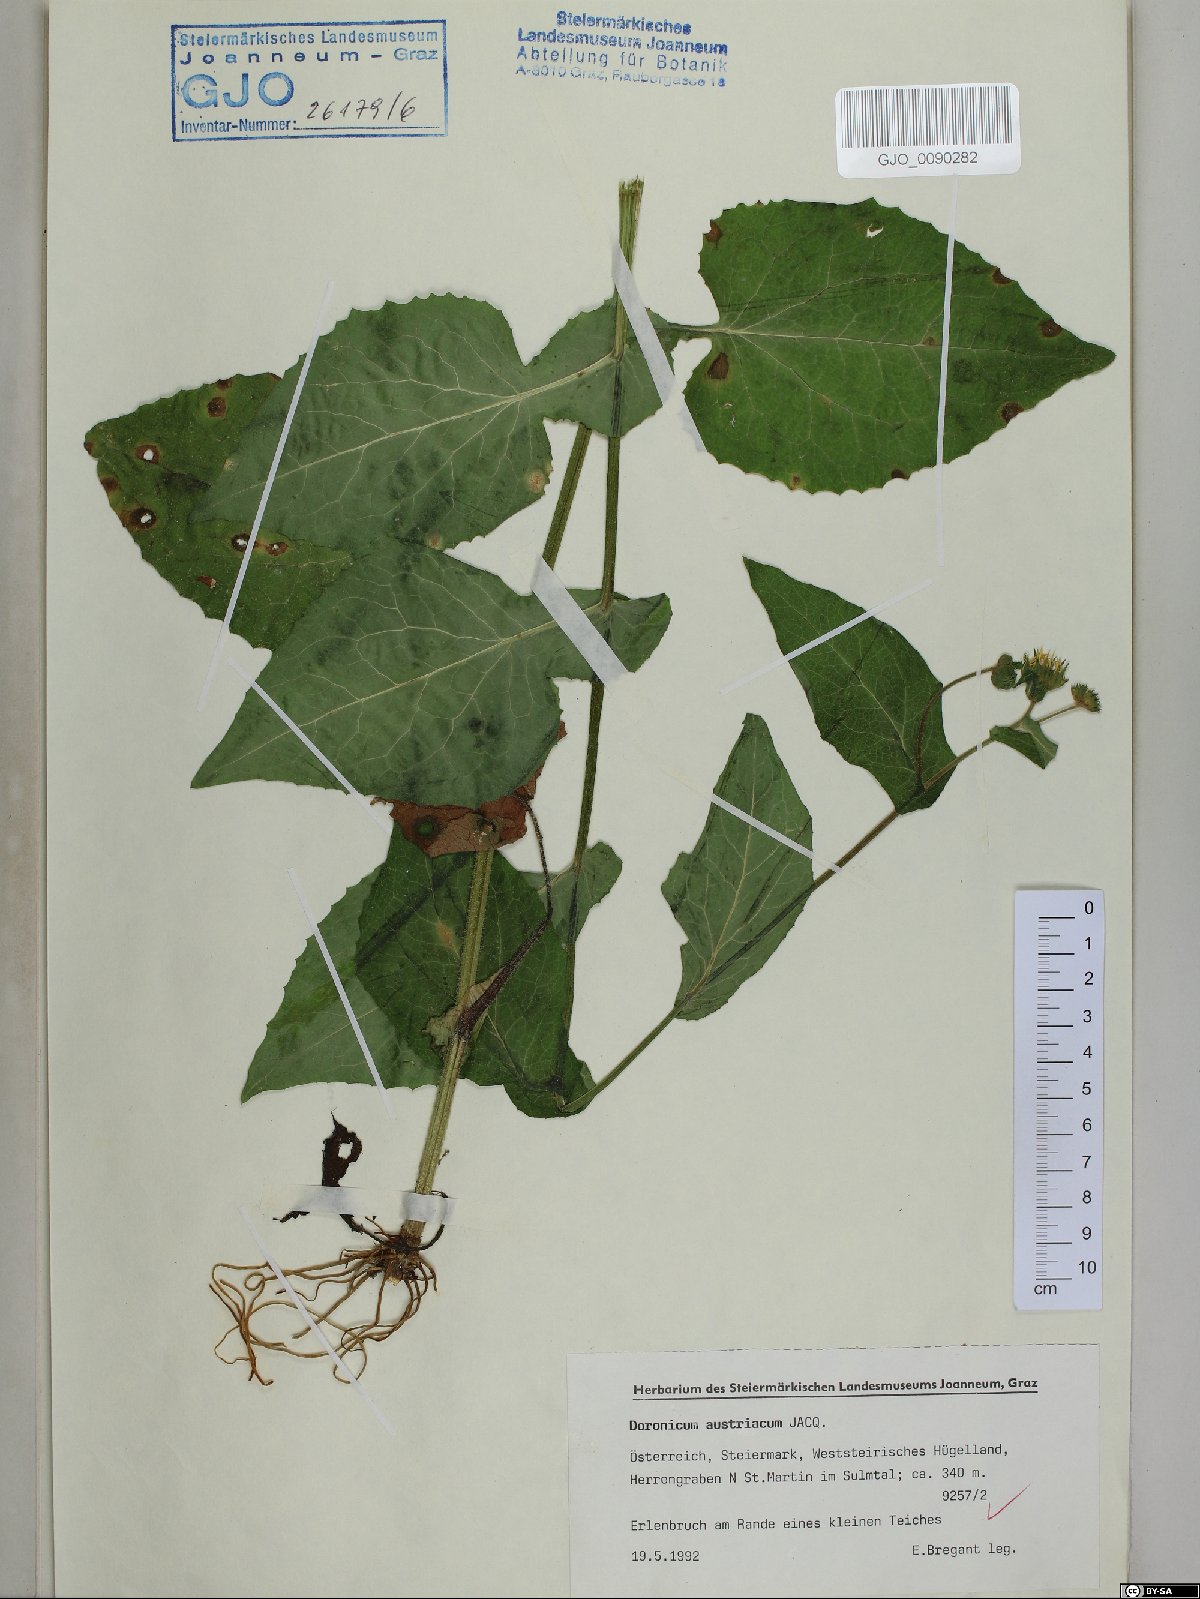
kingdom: Plantae
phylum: Tracheophyta
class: Magnoliopsida
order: Asterales
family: Asteraceae
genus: Doronicum
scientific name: Doronicum austriacum
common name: Austrian leopard's-bane
